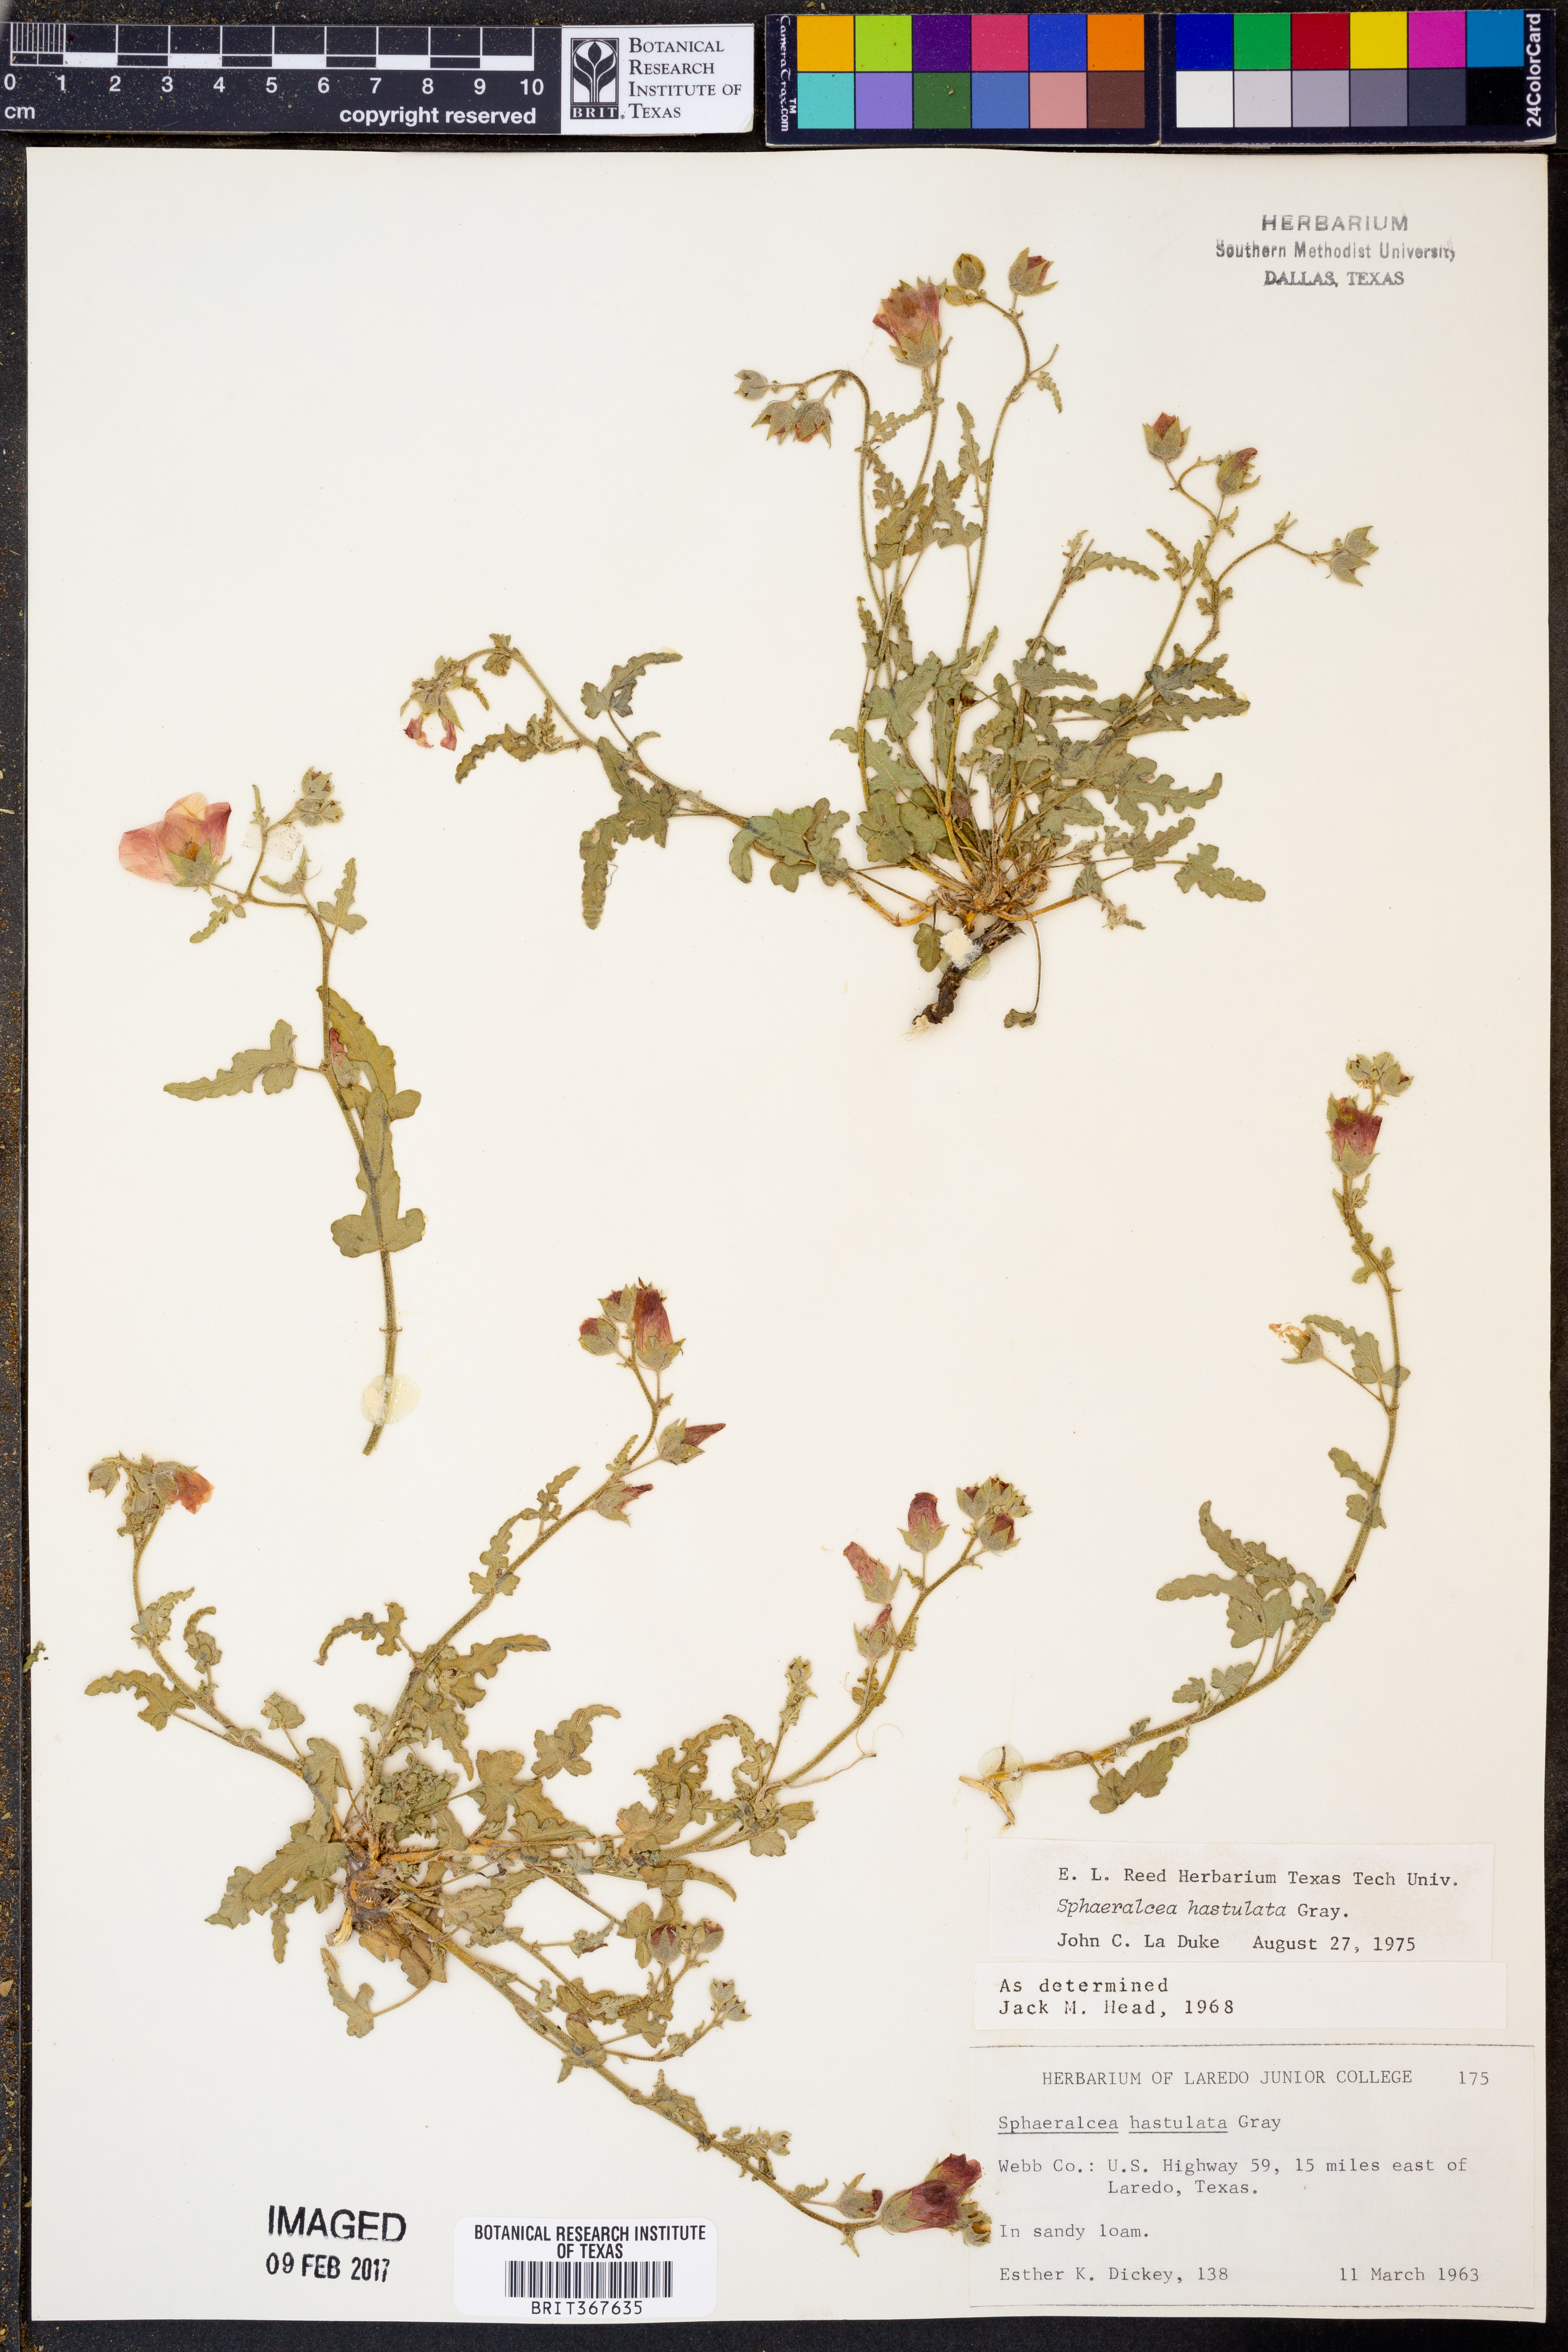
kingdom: Plantae
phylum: Tracheophyta
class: Magnoliopsida
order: Malvales
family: Malvaceae
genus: Sphaeralcea
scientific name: Sphaeralcea hastulata
